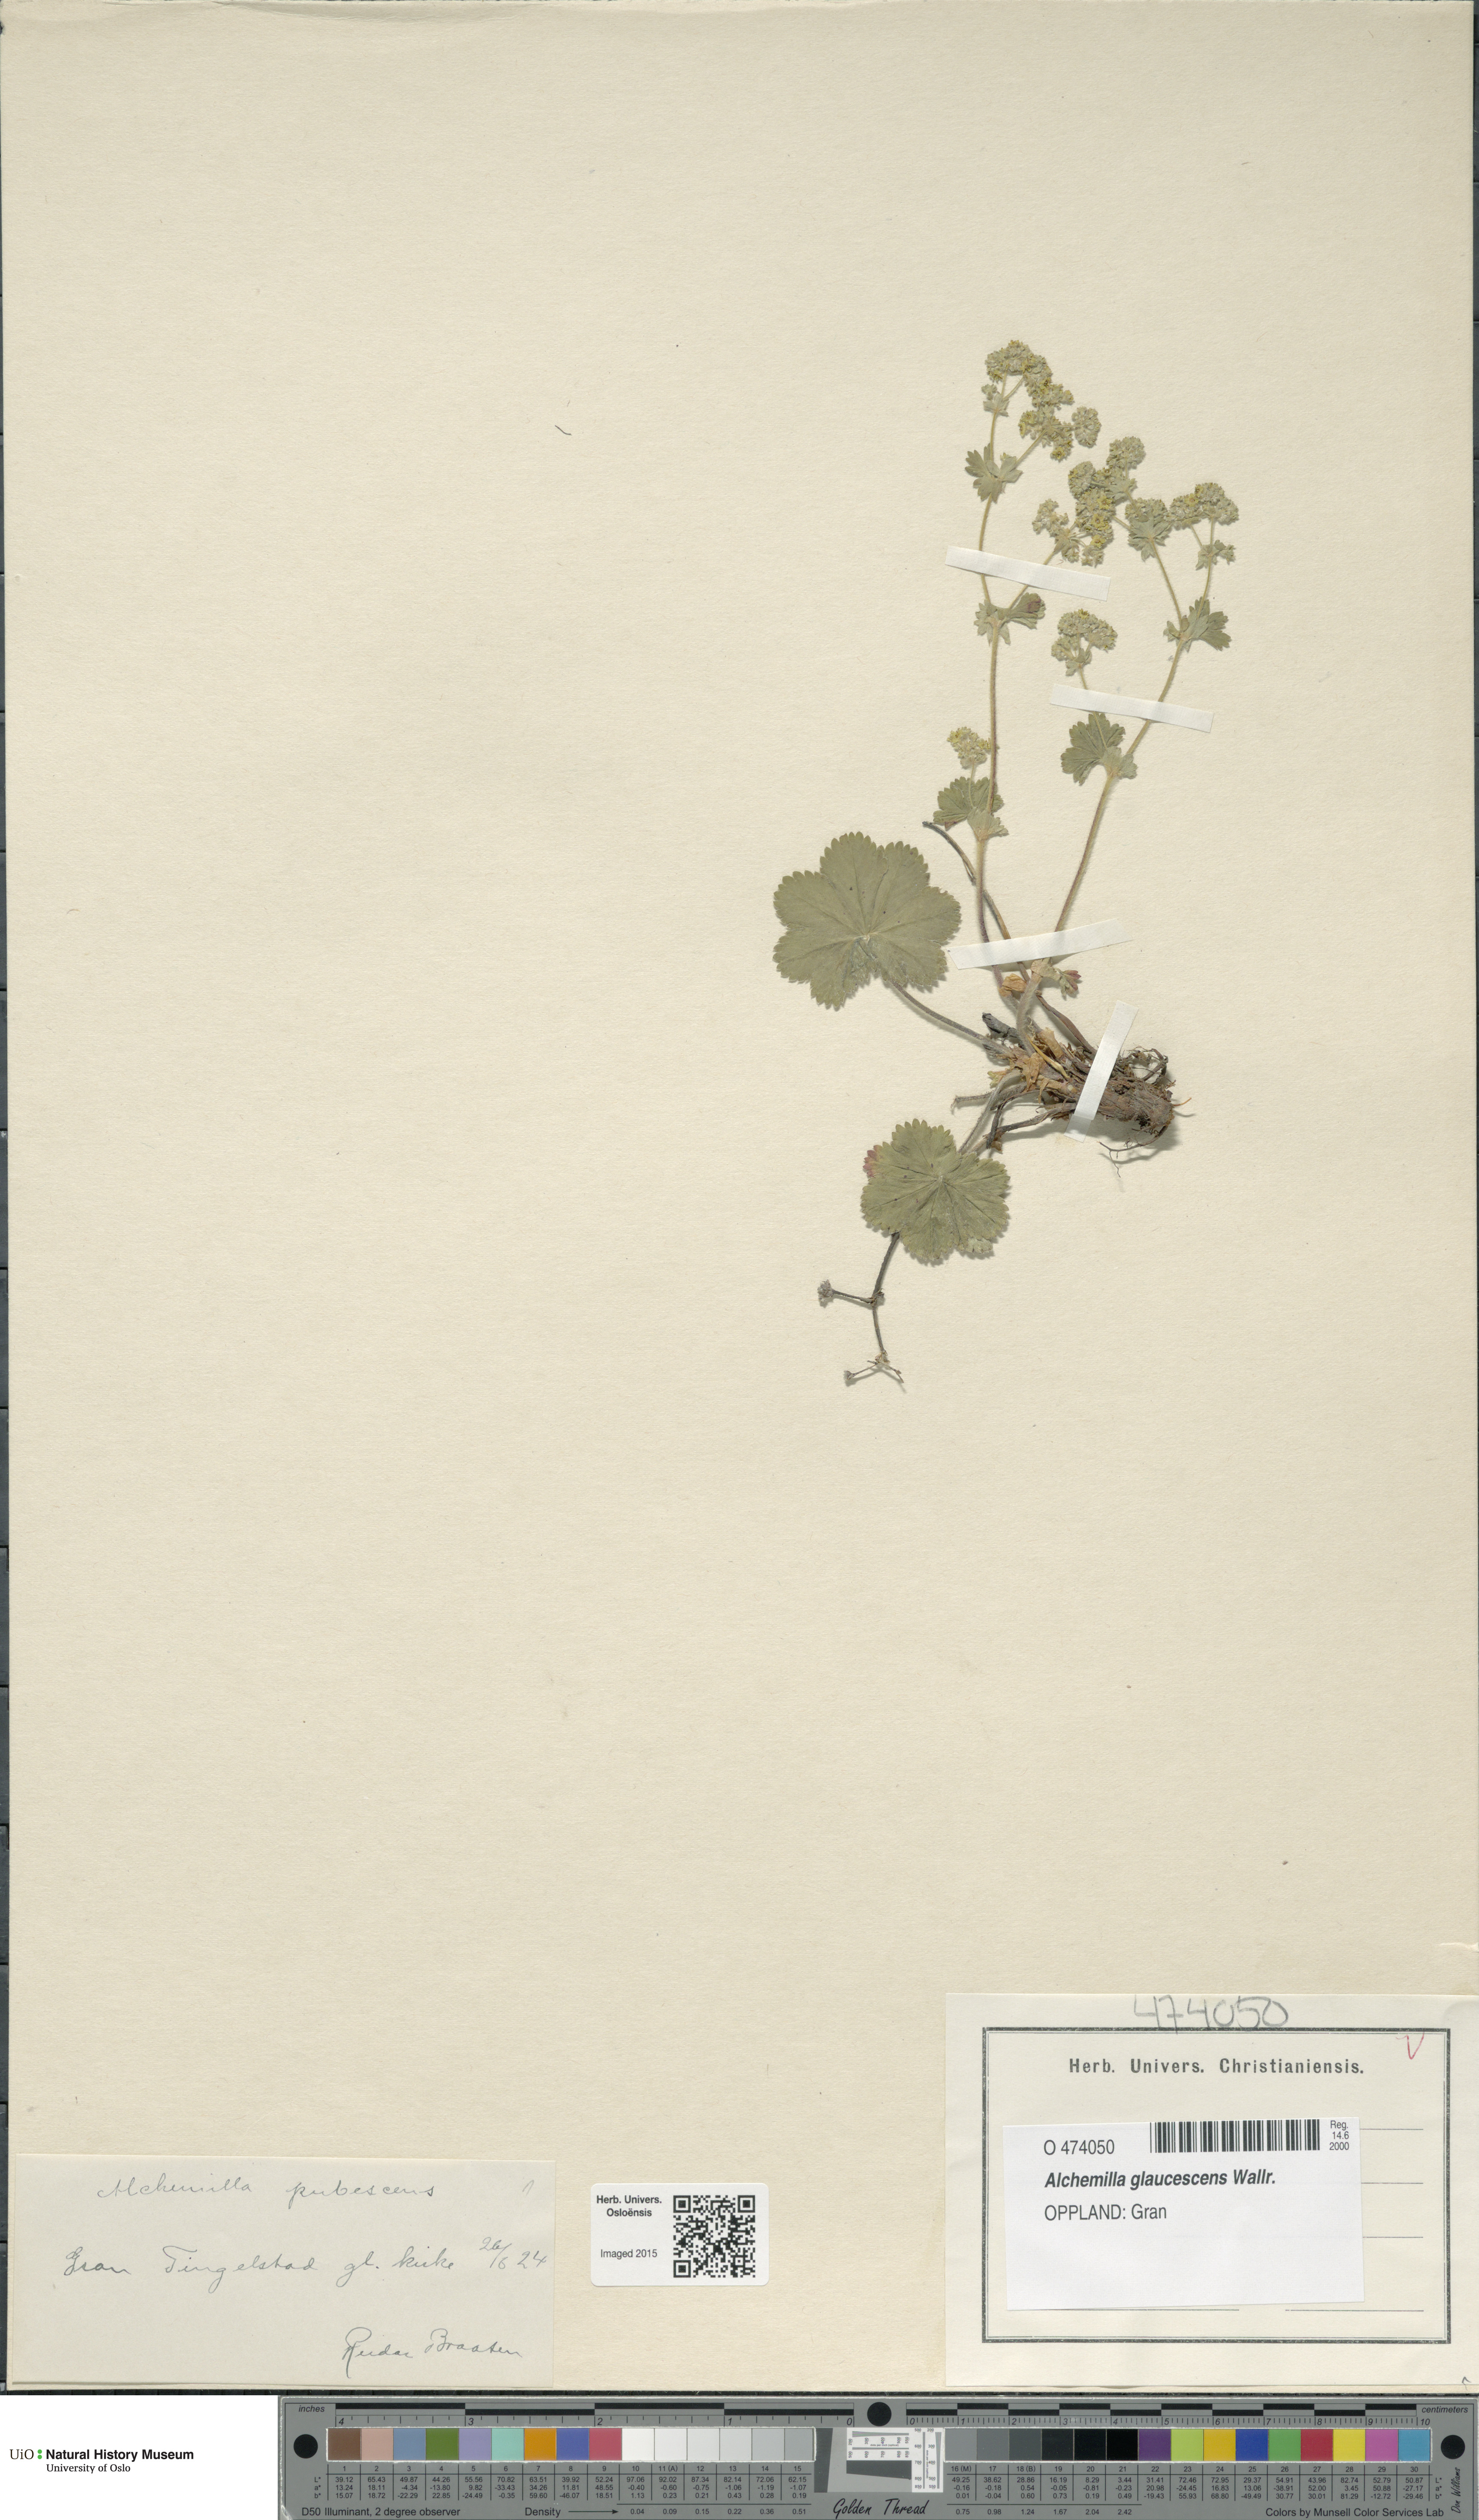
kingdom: Plantae
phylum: Tracheophyta
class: Magnoliopsida
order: Rosales
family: Rosaceae
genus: Alchemilla
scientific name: Alchemilla glaucescens
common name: Silky lady's mantle
